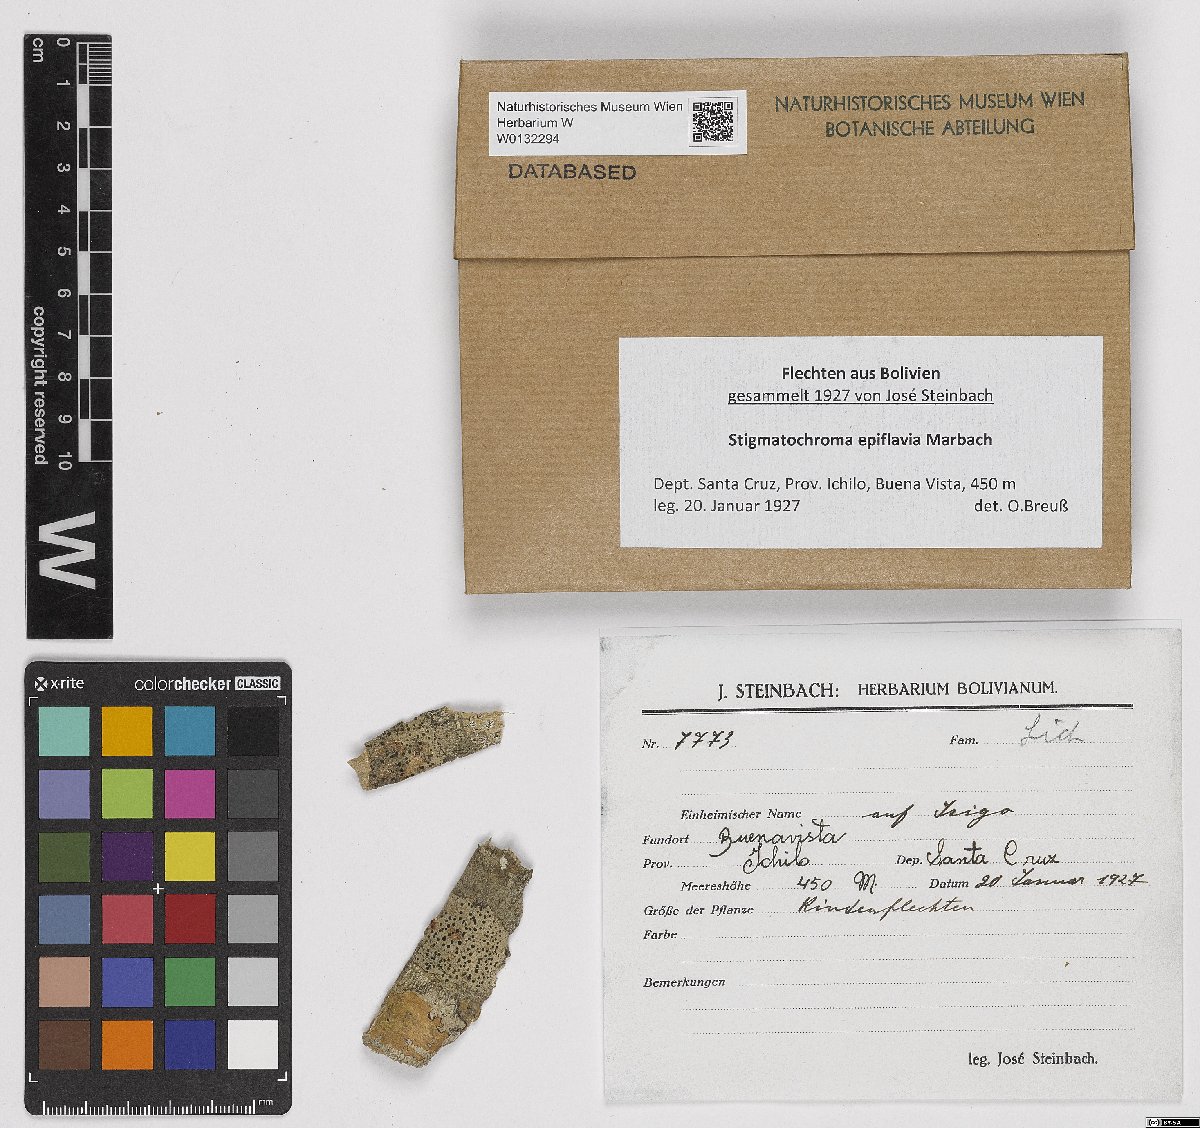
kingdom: Fungi
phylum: Ascomycota
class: Lecanoromycetes
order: Caliciales
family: Caliciaceae
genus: Stigmatochroma
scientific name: Stigmatochroma epiflavium
